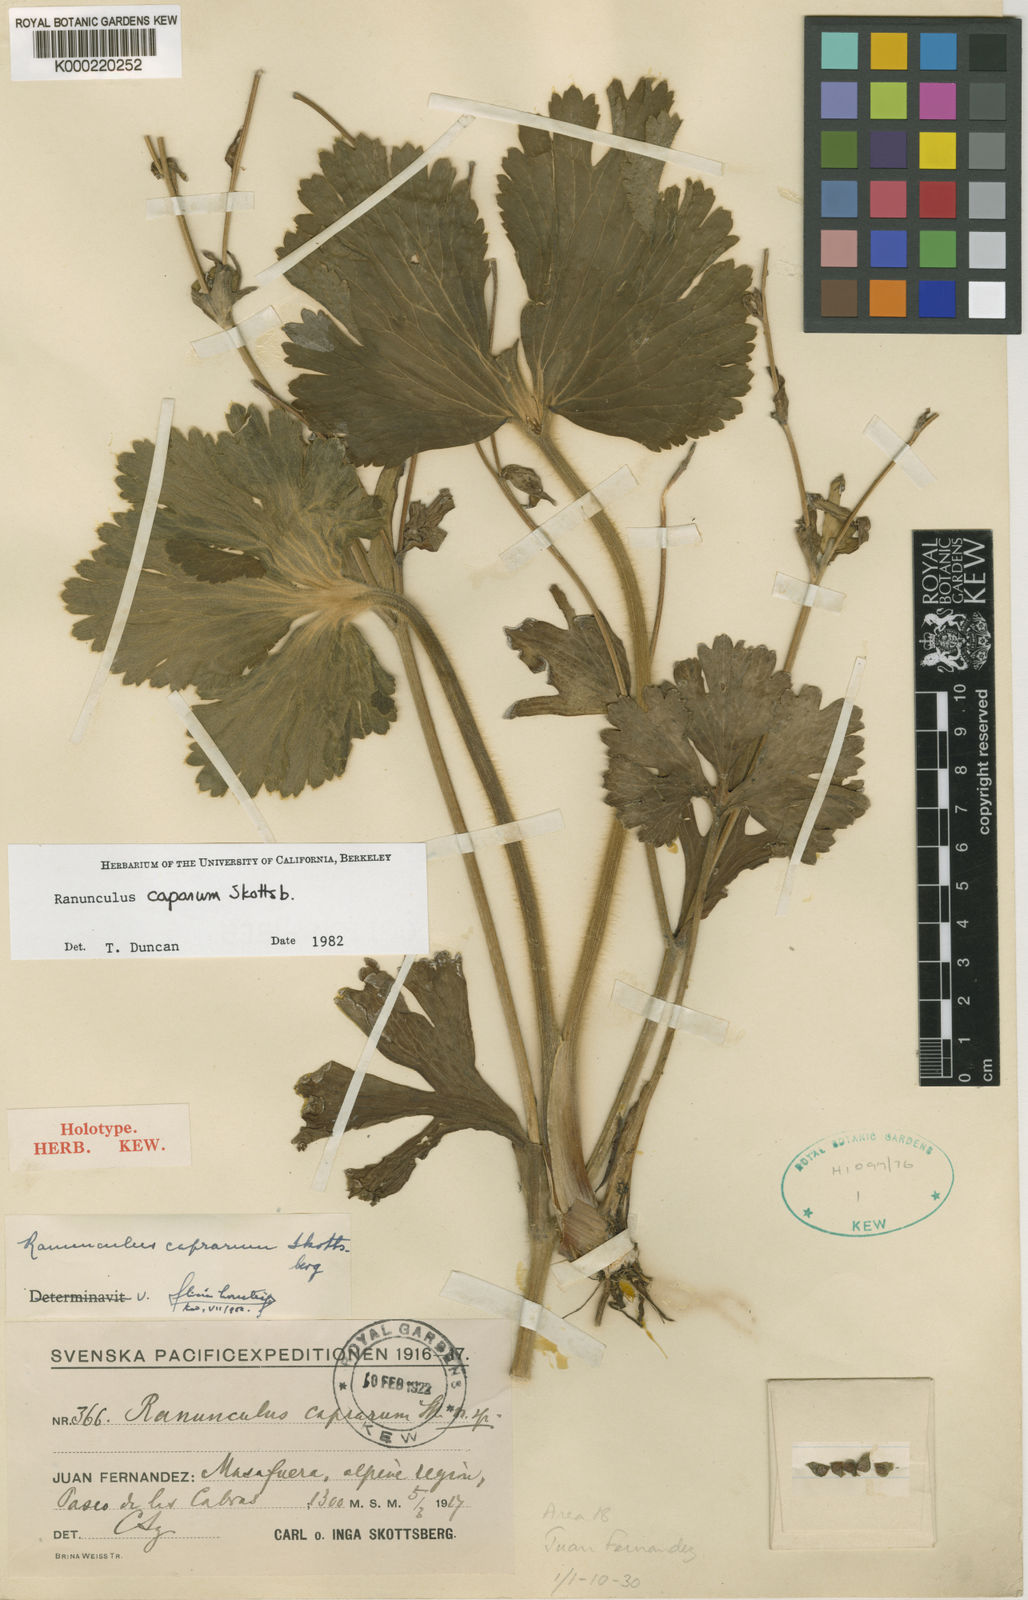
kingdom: Plantae
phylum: Tracheophyta
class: Magnoliopsida
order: Ranunculales
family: Ranunculaceae
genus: Ranunculus
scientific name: Ranunculus caprarum
